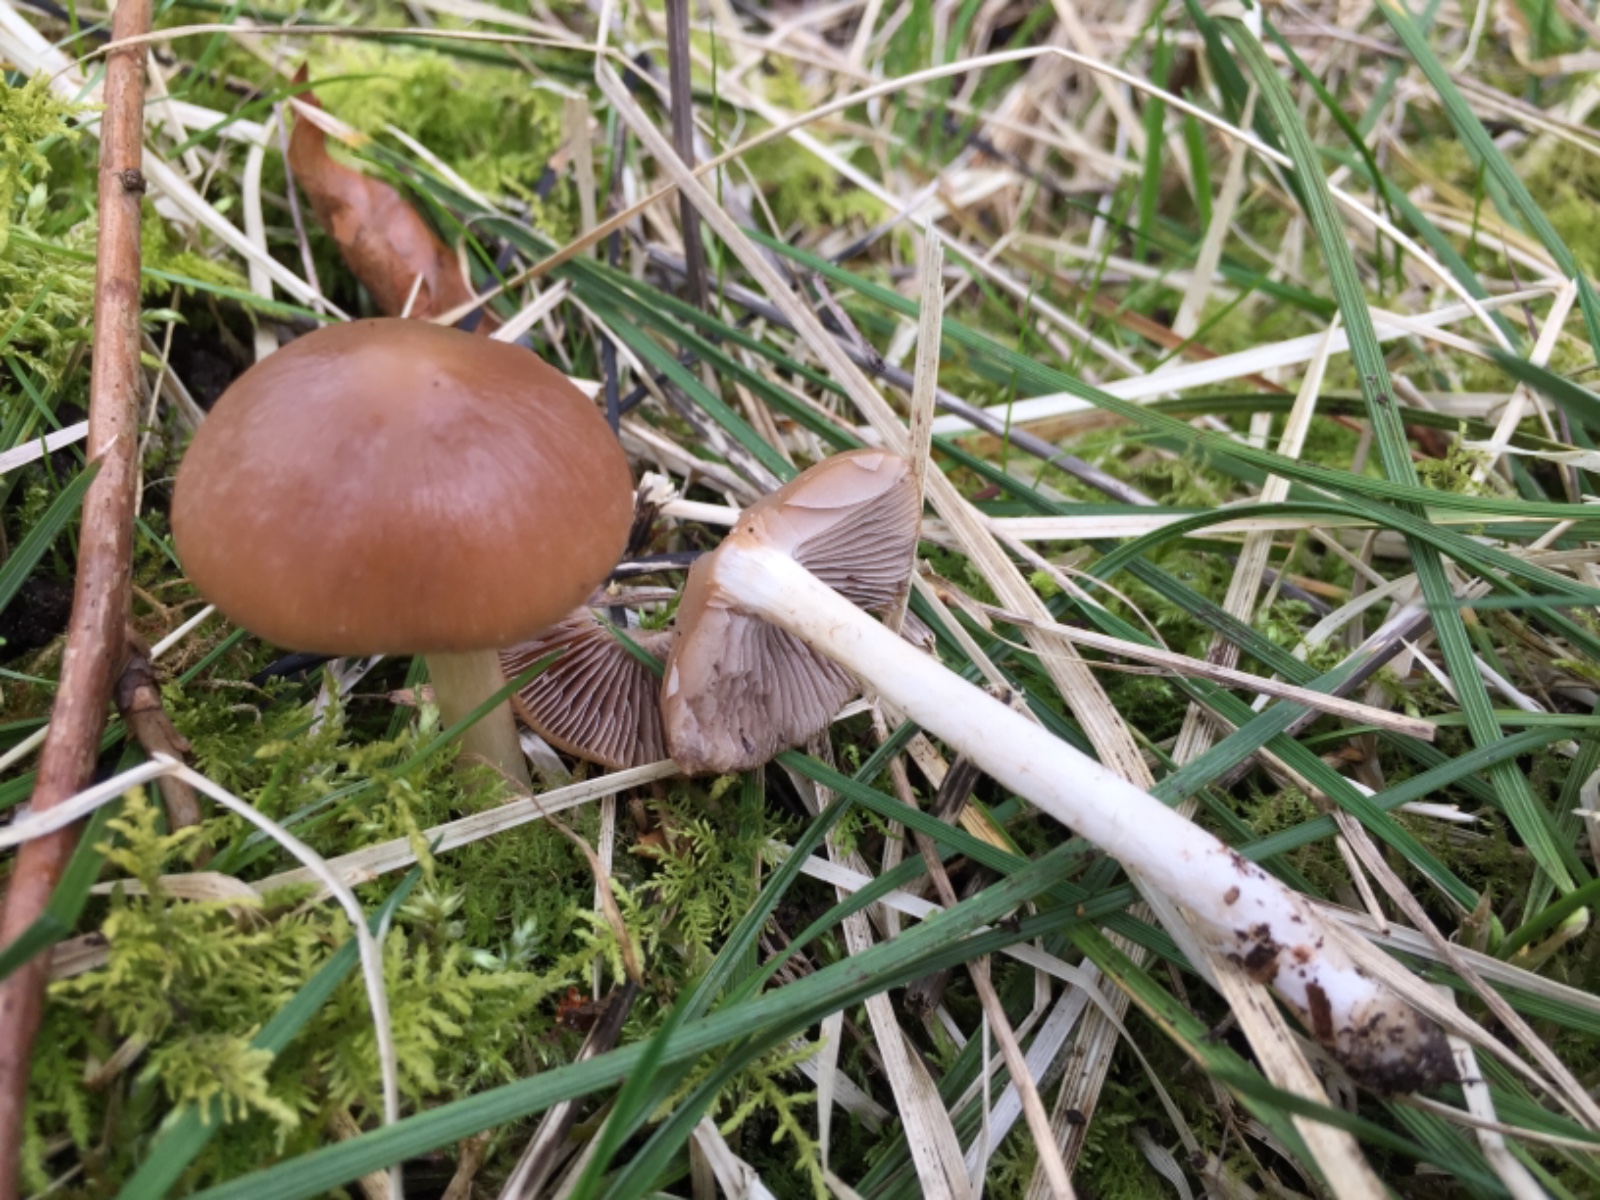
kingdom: Fungi
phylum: Basidiomycota
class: Agaricomycetes
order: Agaricales
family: Psathyrellaceae
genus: Psathyrella
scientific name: Psathyrella spadiceogrisea
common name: gråbrun mørkhat
